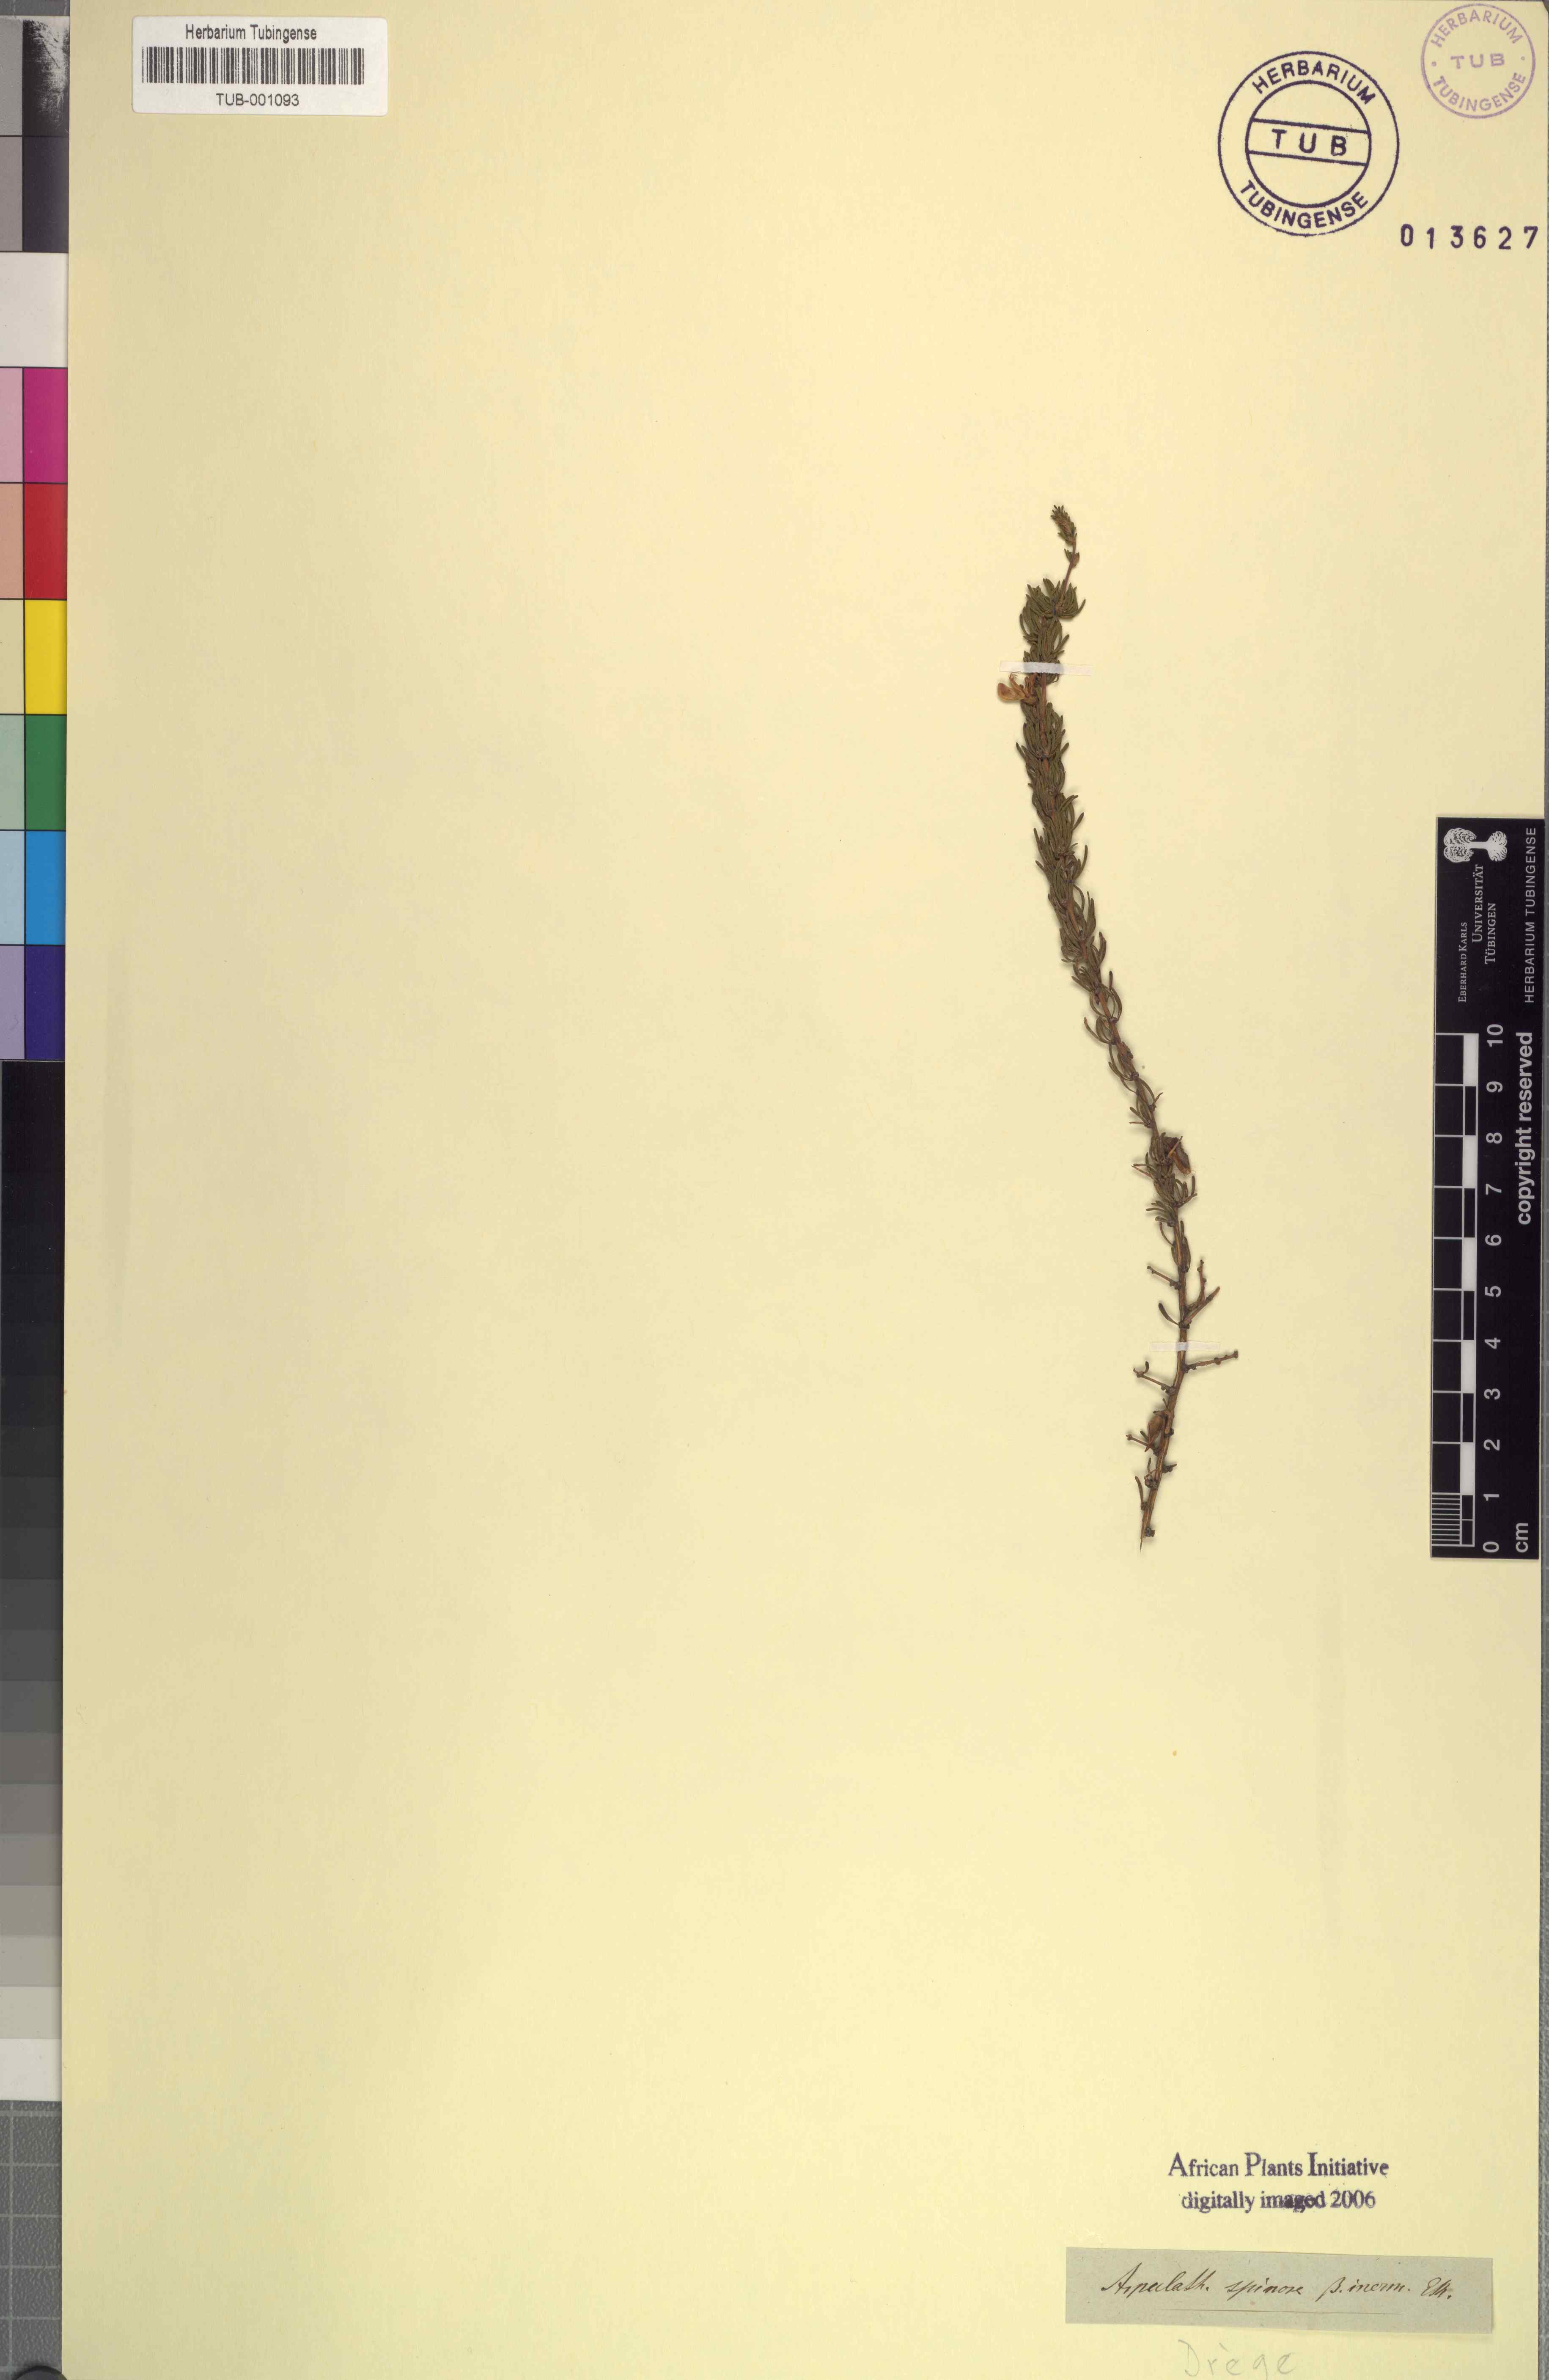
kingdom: Plantae
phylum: Tracheophyta
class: Magnoliopsida
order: Fabales
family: Fabaceae
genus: Aspalathus
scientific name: Aspalathus spinosa
